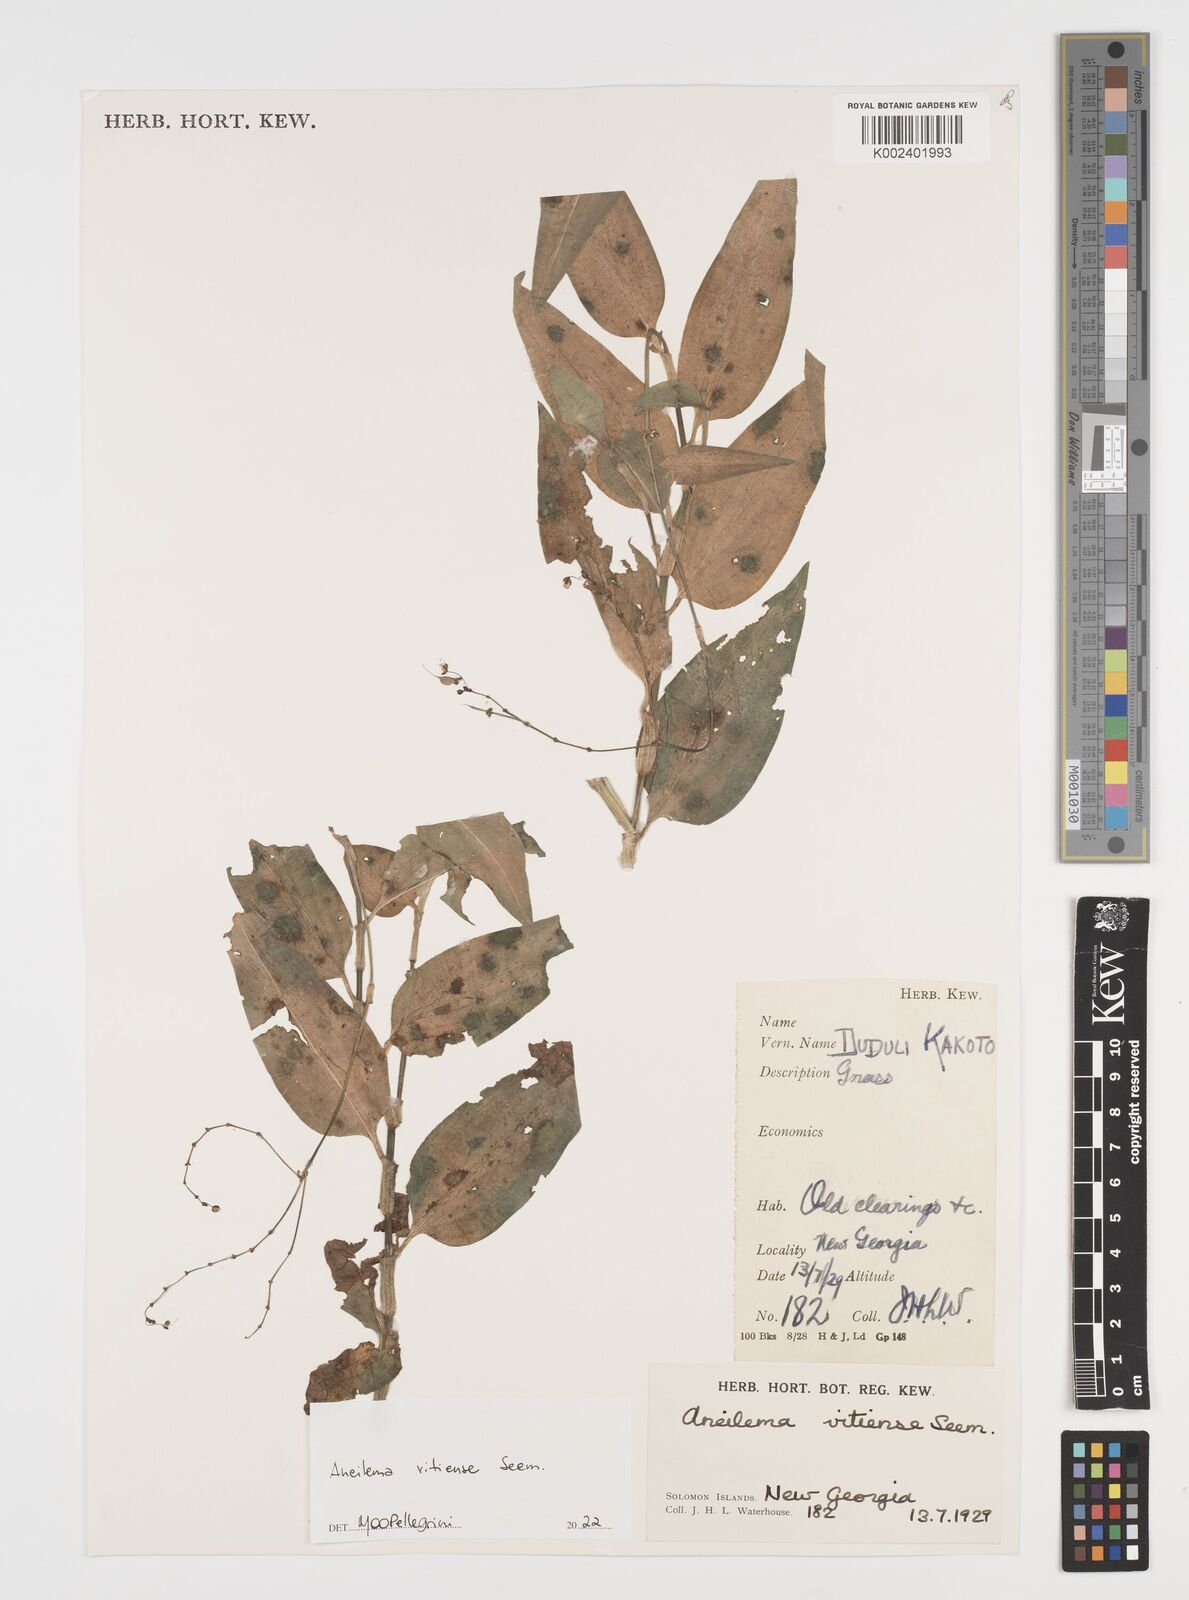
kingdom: Plantae
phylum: Tracheophyta
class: Liliopsida
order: Commelinales
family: Commelinaceae
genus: Rhopalephora
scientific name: Rhopalephora vitiensis
